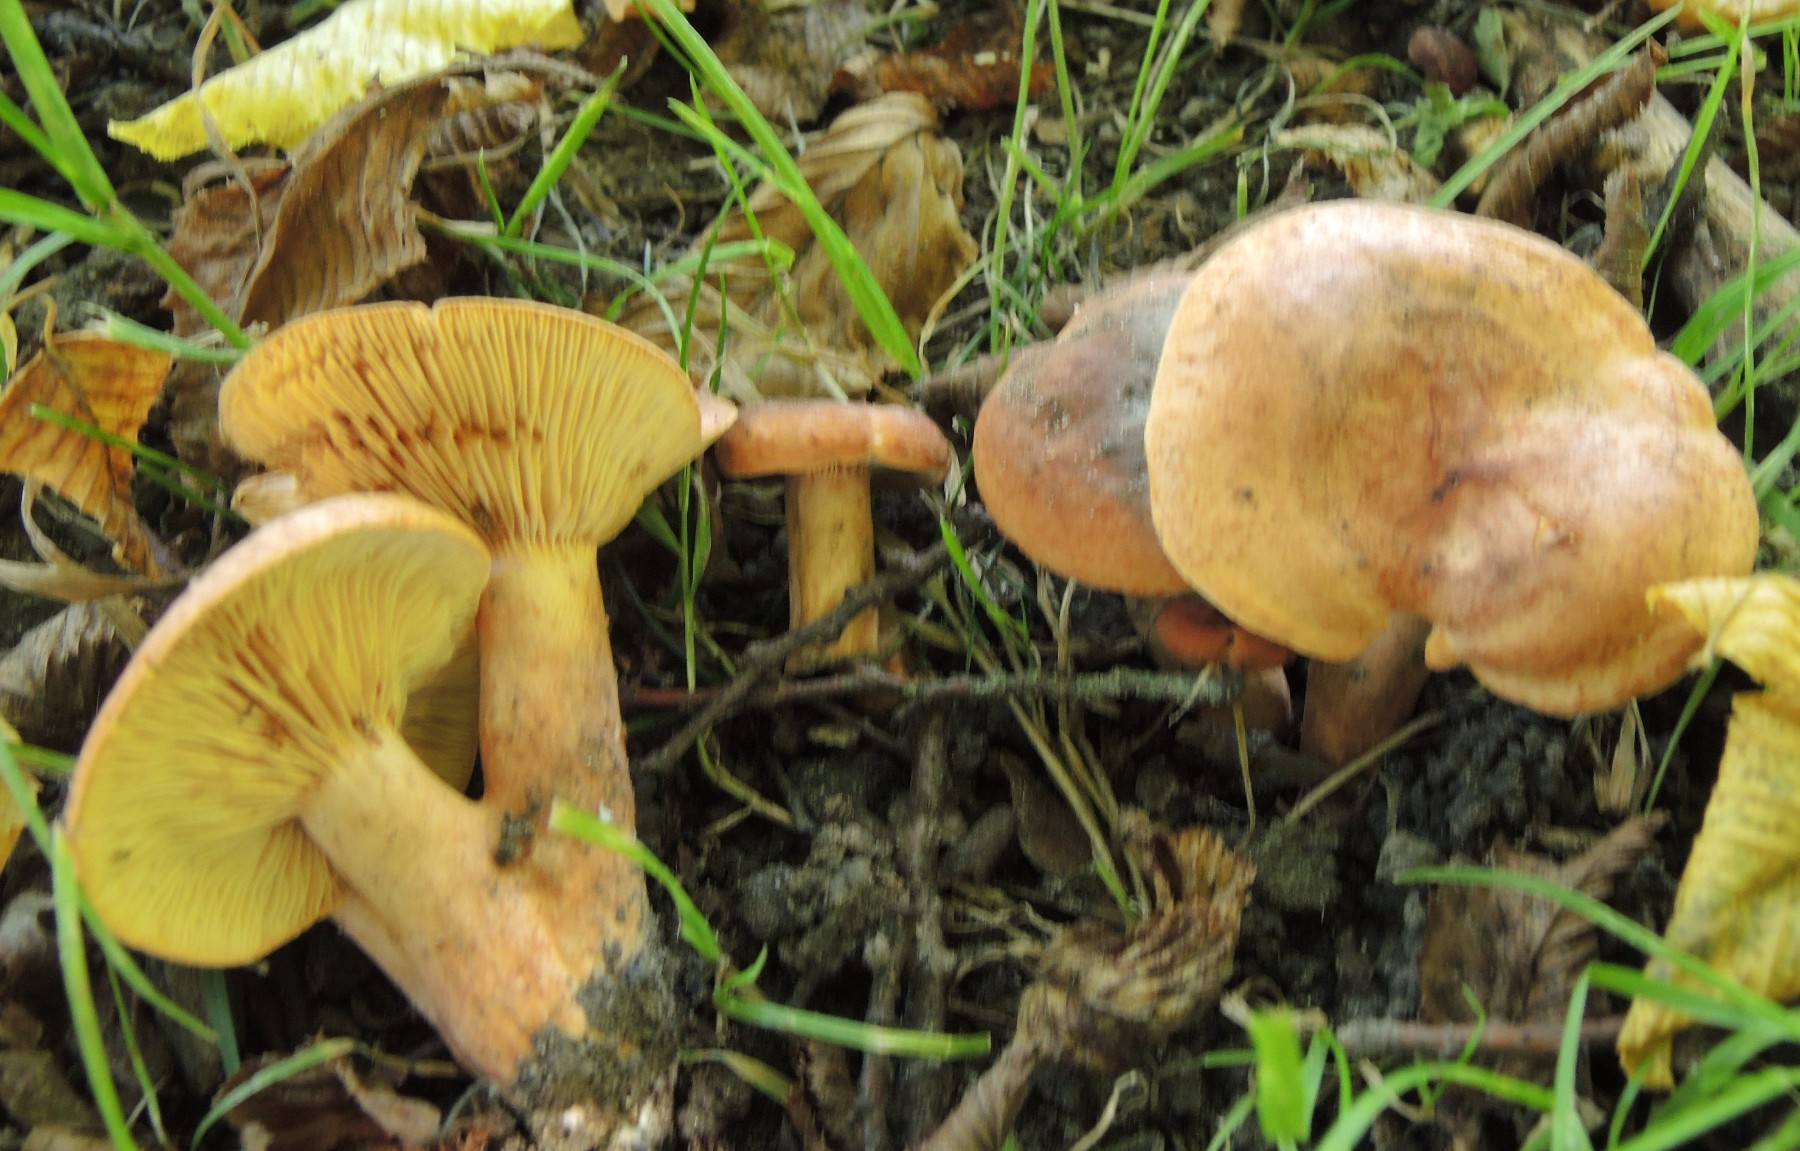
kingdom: Fungi
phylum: Basidiomycota
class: Agaricomycetes
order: Russulales
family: Russulaceae
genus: Lactarius
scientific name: Lactarius fulvissimus
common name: ræve-mælkehat
